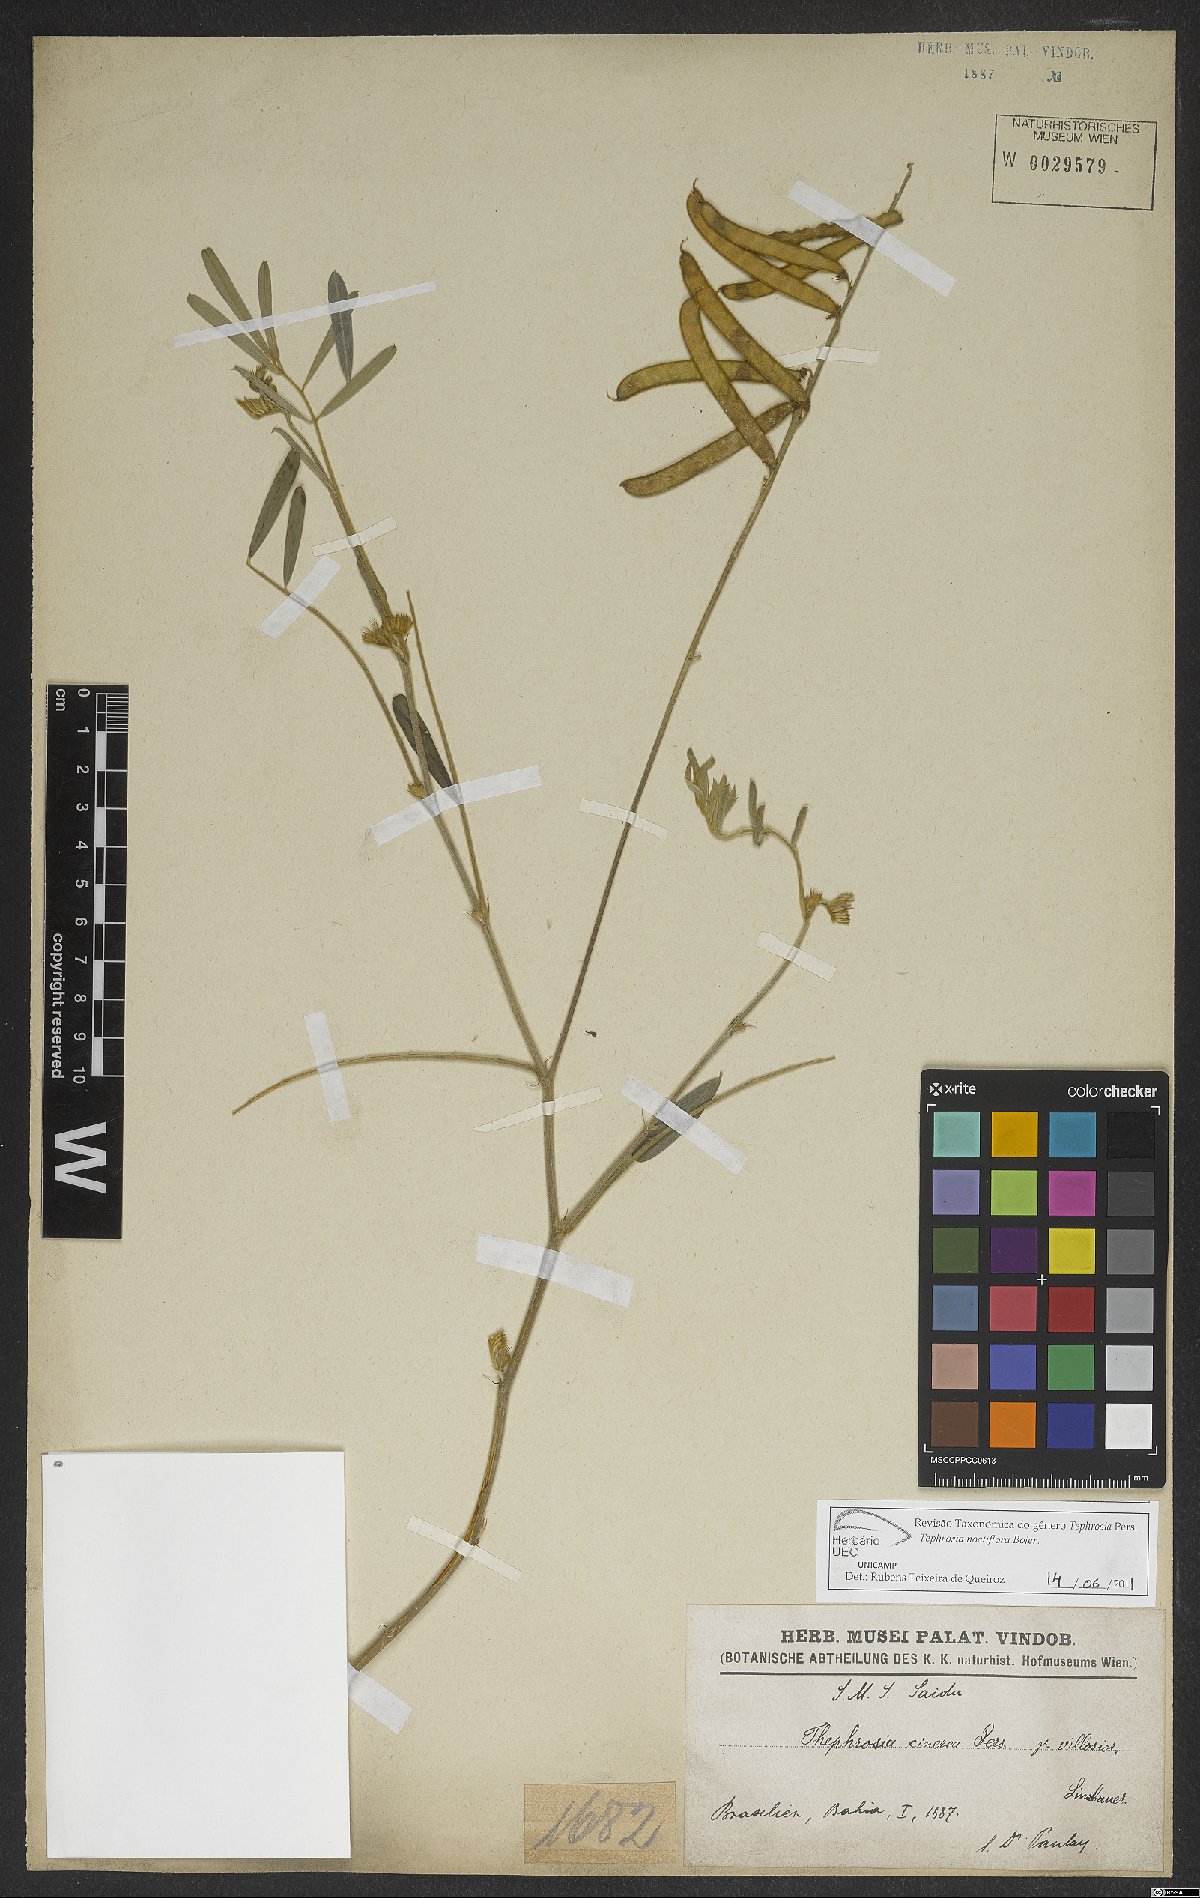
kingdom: Plantae
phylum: Tracheophyta
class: Magnoliopsida
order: Fabales
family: Fabaceae
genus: Tephrosia
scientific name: Tephrosia noctiflora
